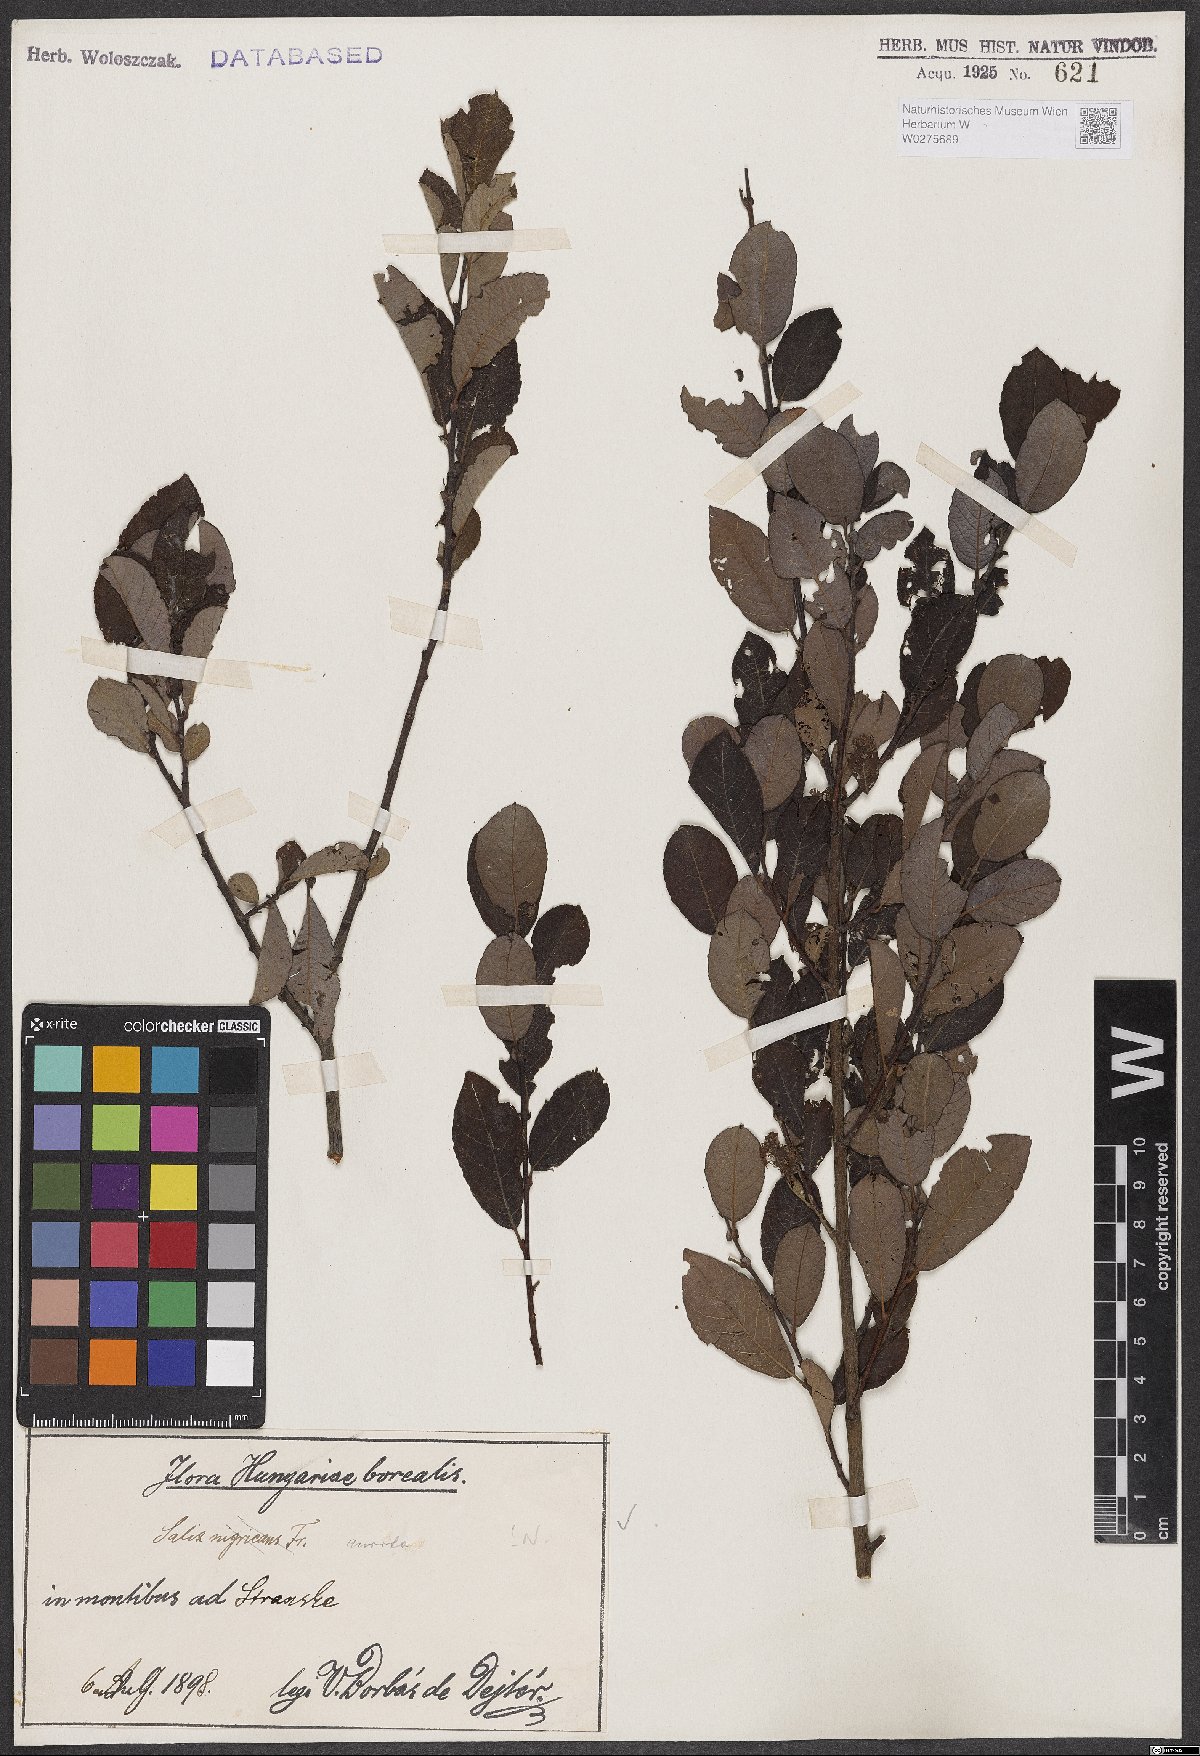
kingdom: Plantae
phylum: Tracheophyta
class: Magnoliopsida
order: Malpighiales
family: Salicaceae
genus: Salix
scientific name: Salix aurita
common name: Eared willow
